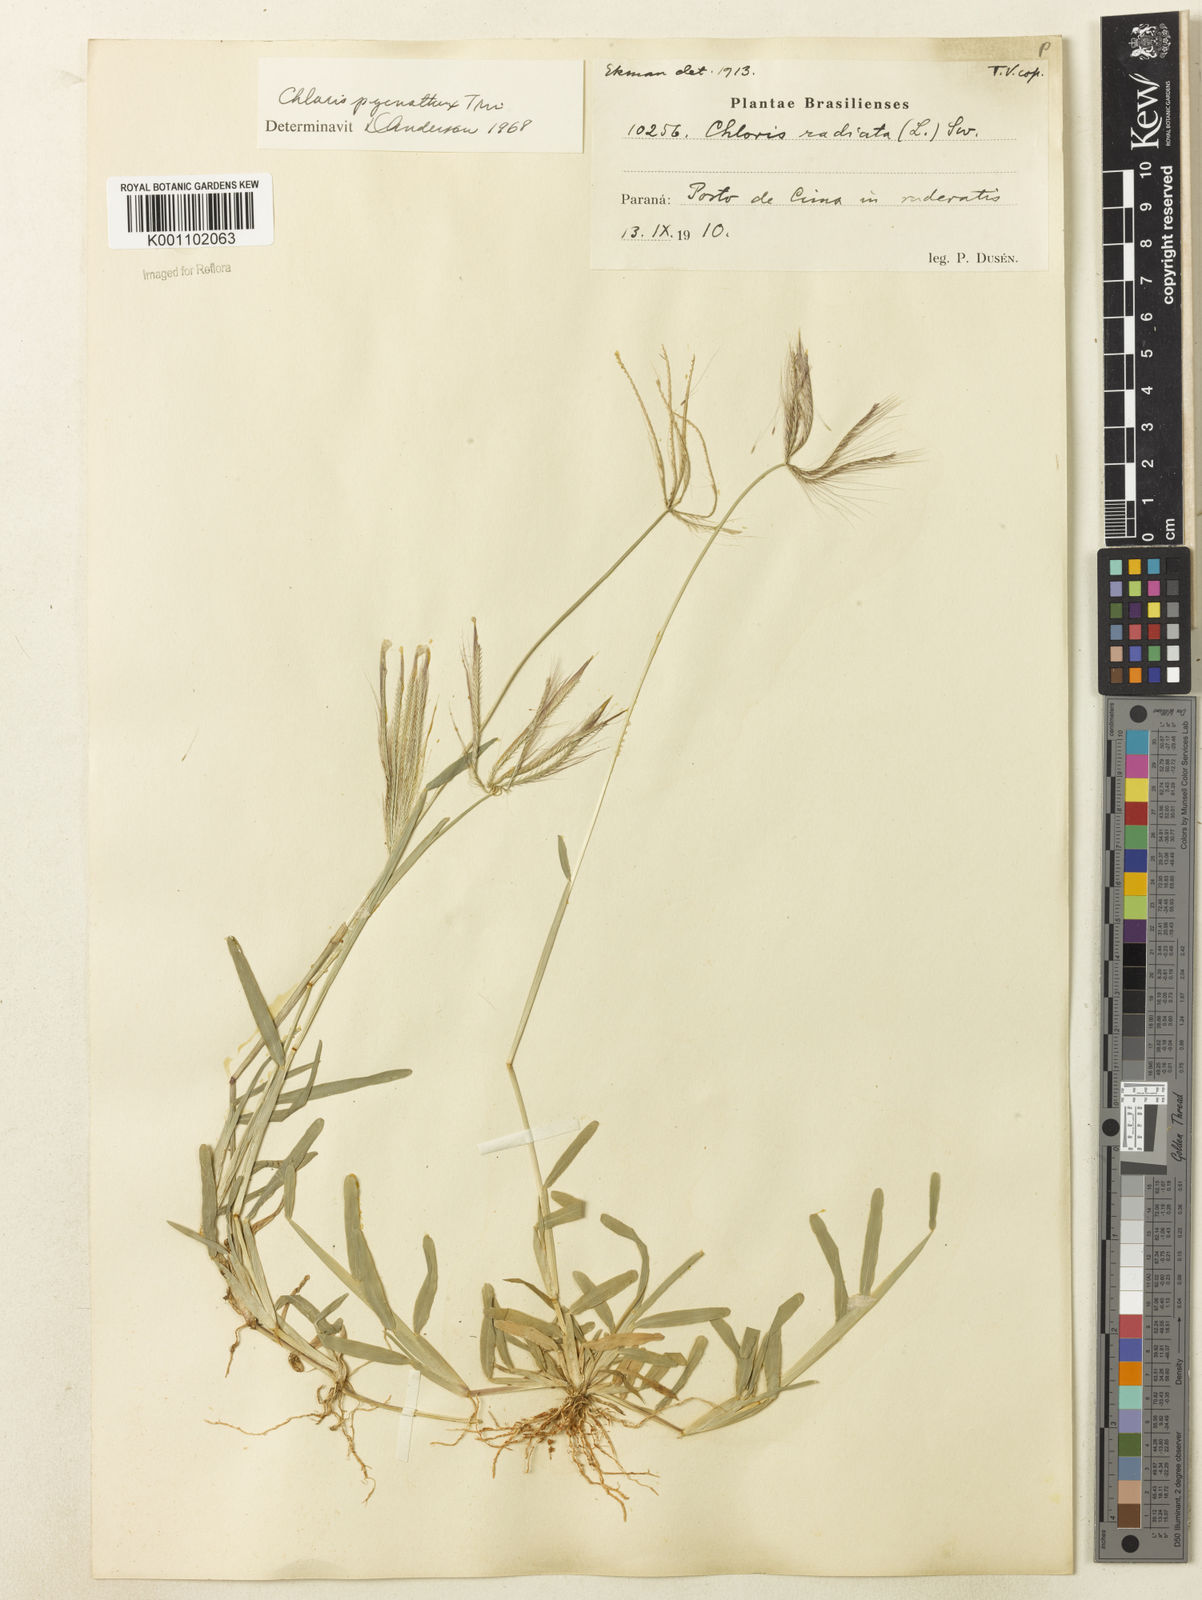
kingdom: Plantae
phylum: Tracheophyta
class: Liliopsida
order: Poales
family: Poaceae
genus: Chloris
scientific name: Chloris pycnothrix
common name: Spiderweb chloris
